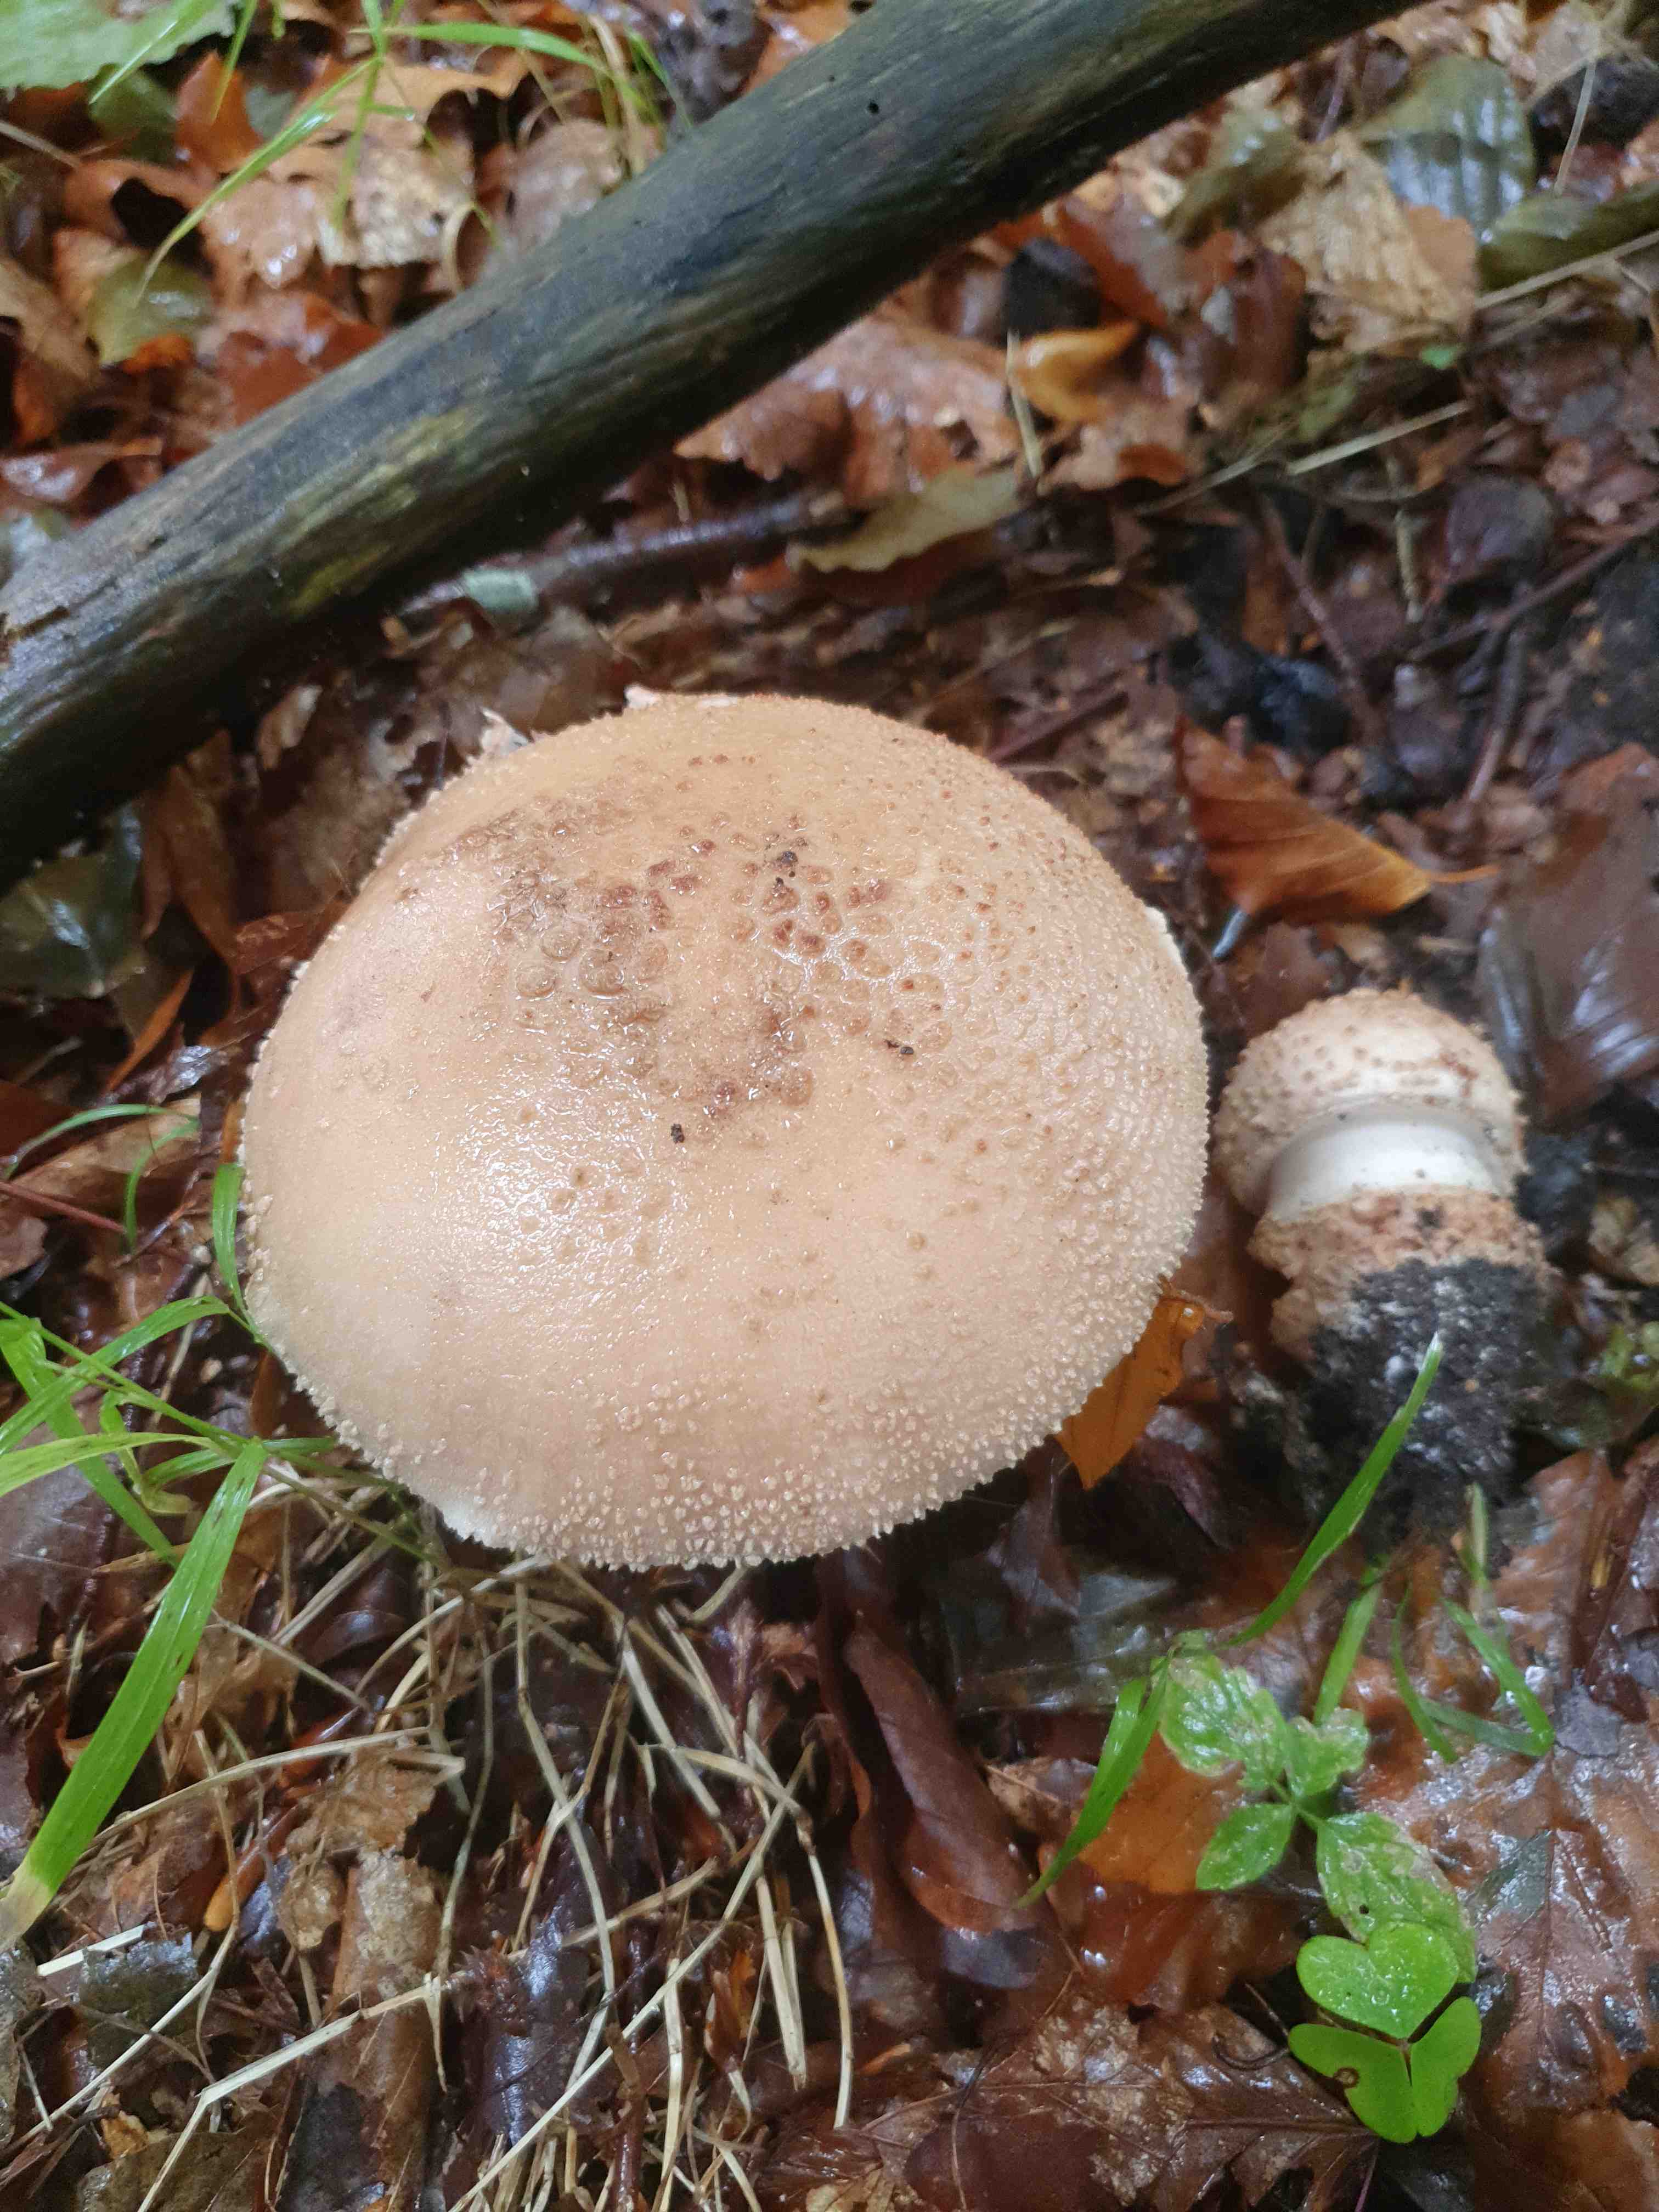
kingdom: Fungi
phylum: Basidiomycota
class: Agaricomycetes
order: Agaricales
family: Amanitaceae
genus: Amanita
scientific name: Amanita rubescens
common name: rødmende fluesvamp
